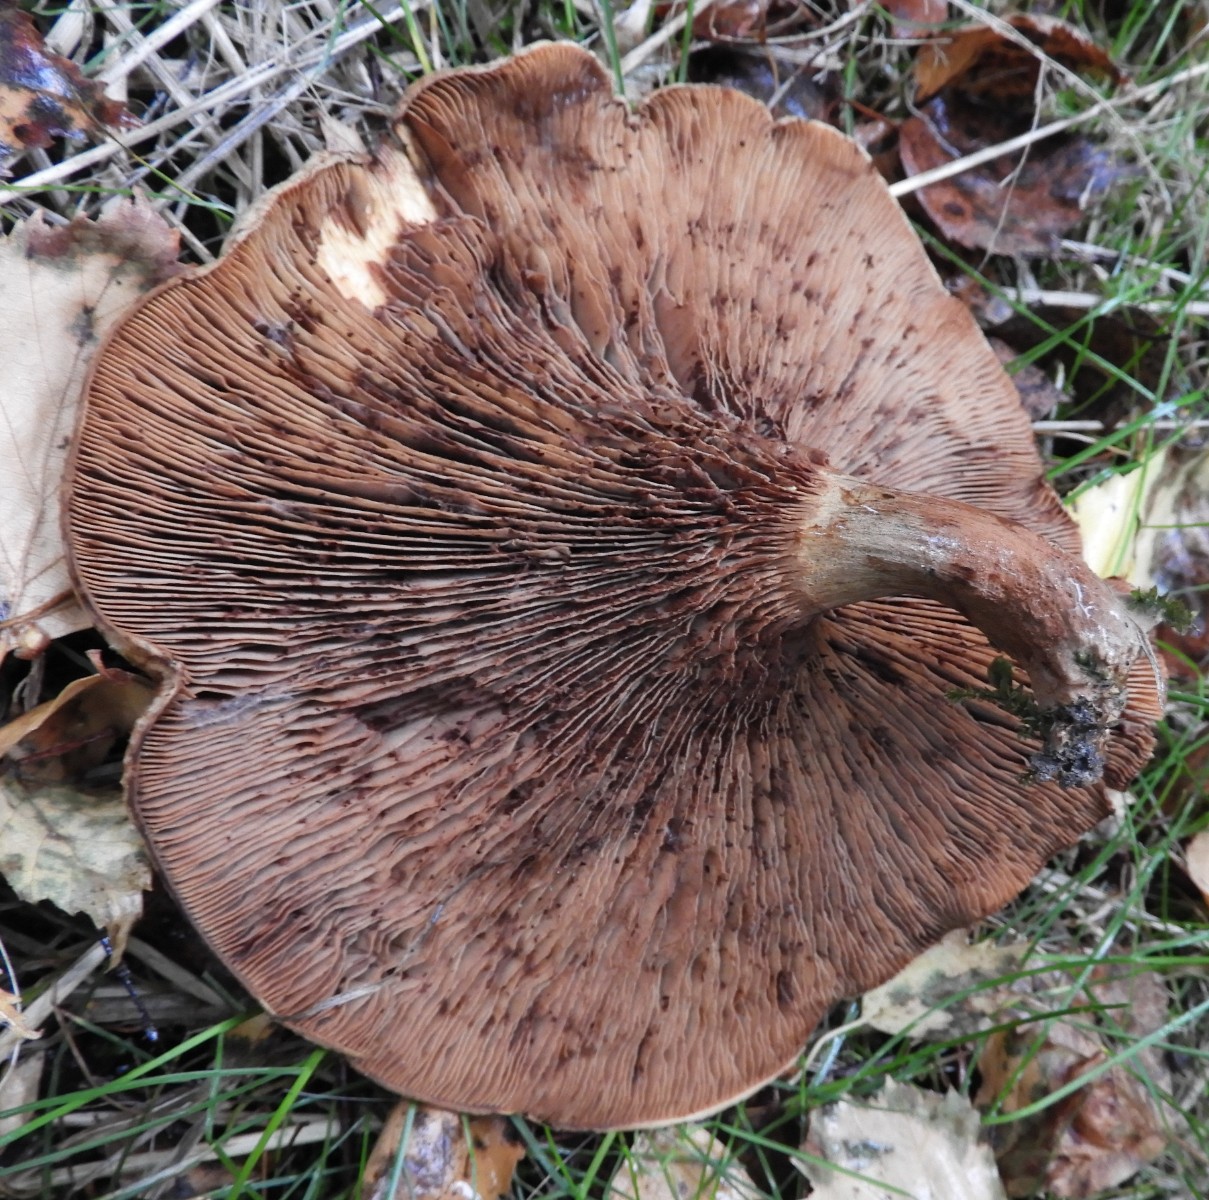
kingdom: Fungi
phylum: Basidiomycota
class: Agaricomycetes
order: Boletales
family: Paxillaceae
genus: Paxillus
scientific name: Paxillus
